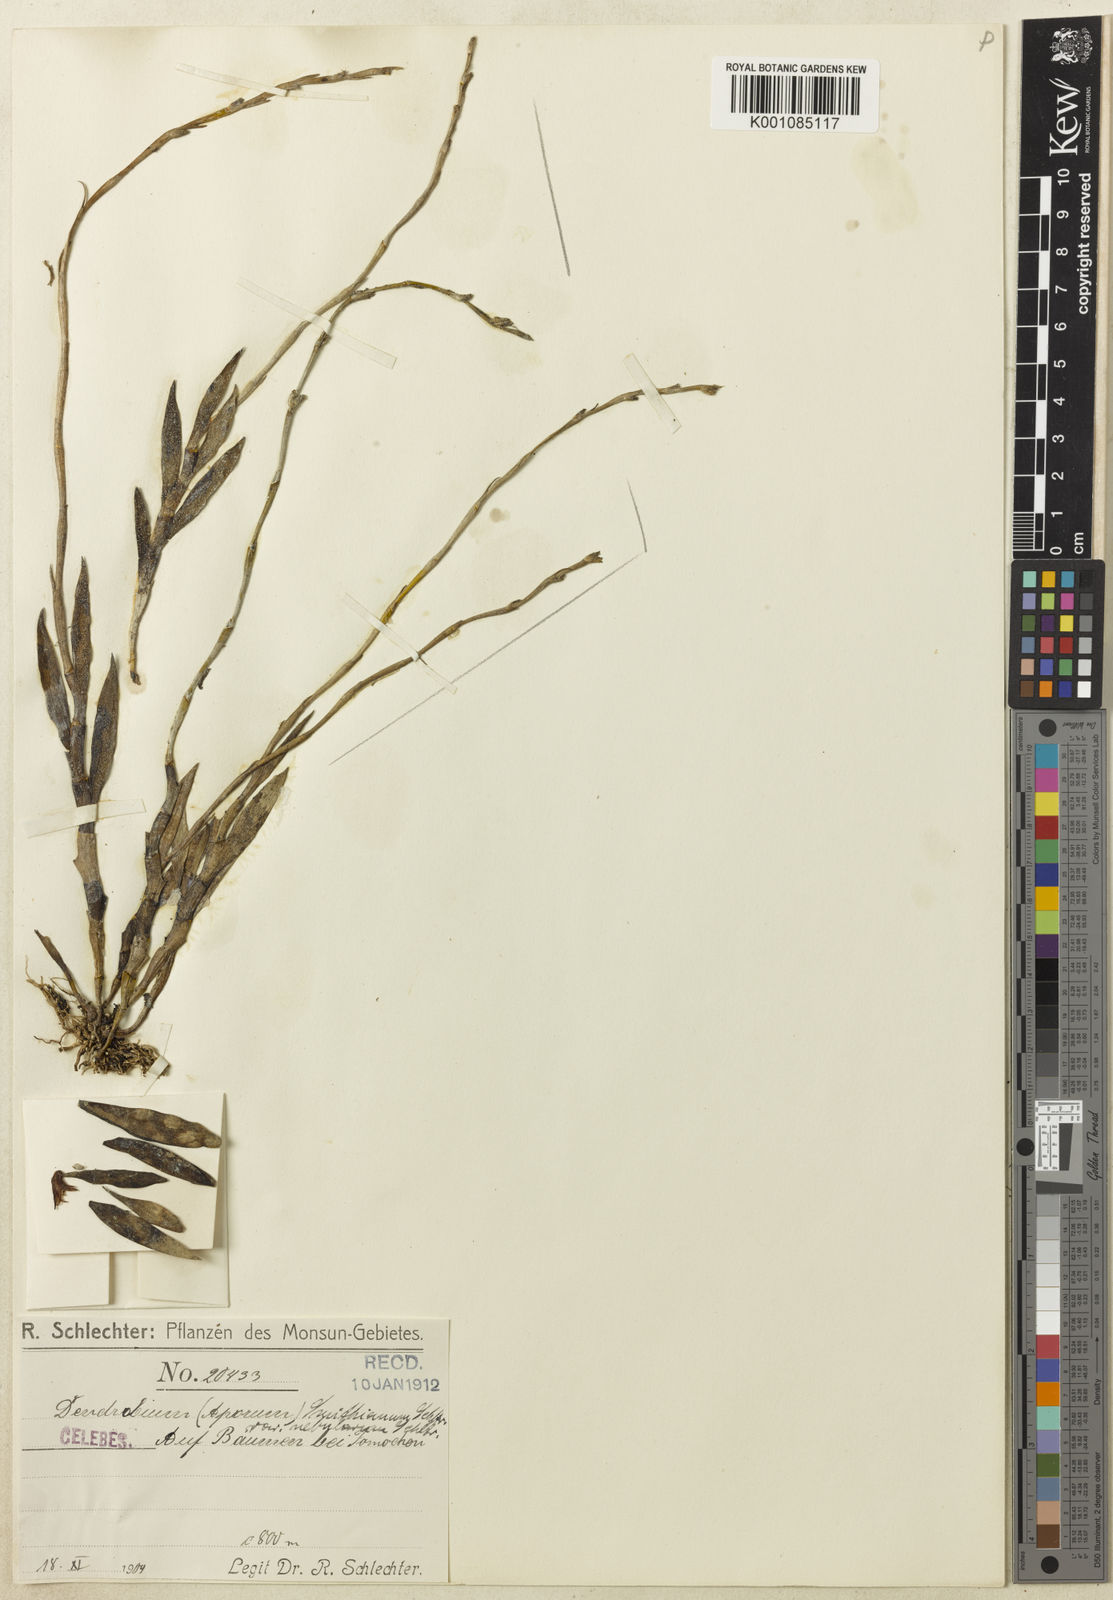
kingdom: Plantae
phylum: Tracheophyta
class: Liliopsida
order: Asparagales
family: Orchidaceae
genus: Dendrobium
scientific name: Dendrobium smithianum
